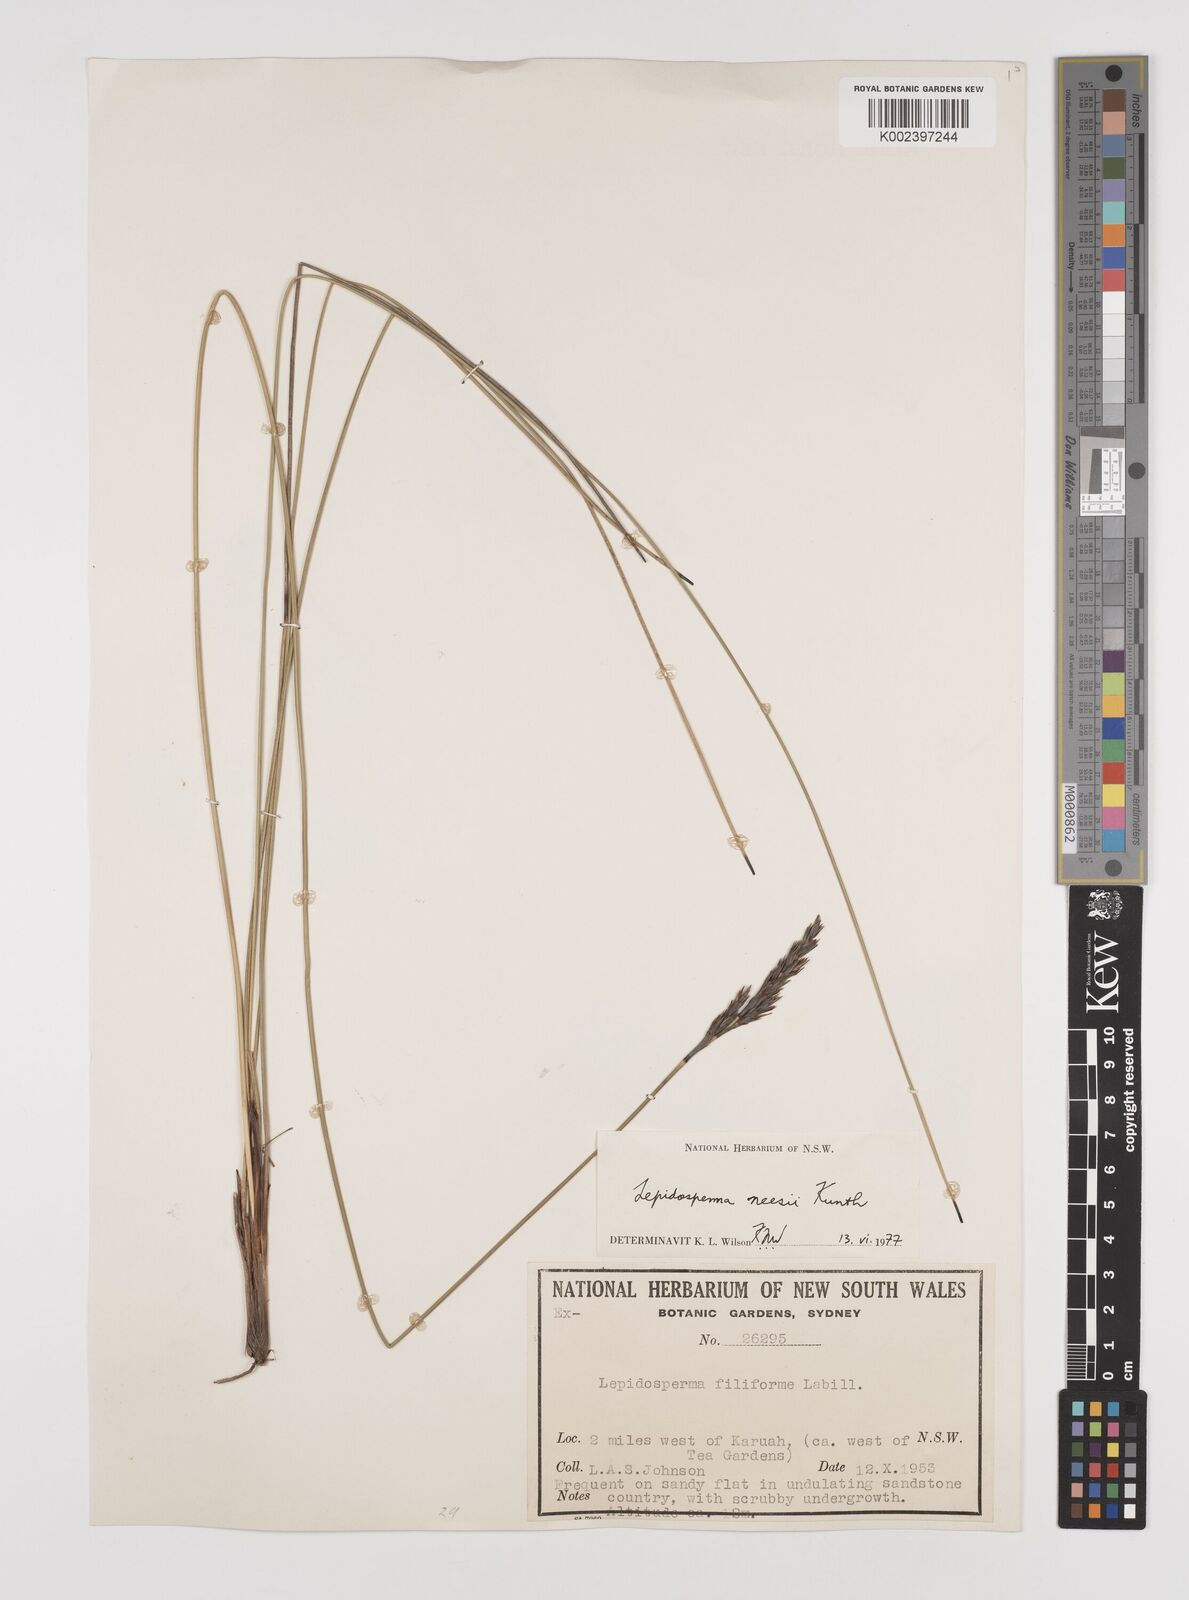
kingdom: Plantae
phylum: Tracheophyta
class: Liliopsida
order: Poales
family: Cyperaceae
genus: Lepidosperma
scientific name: Lepidosperma neesii
